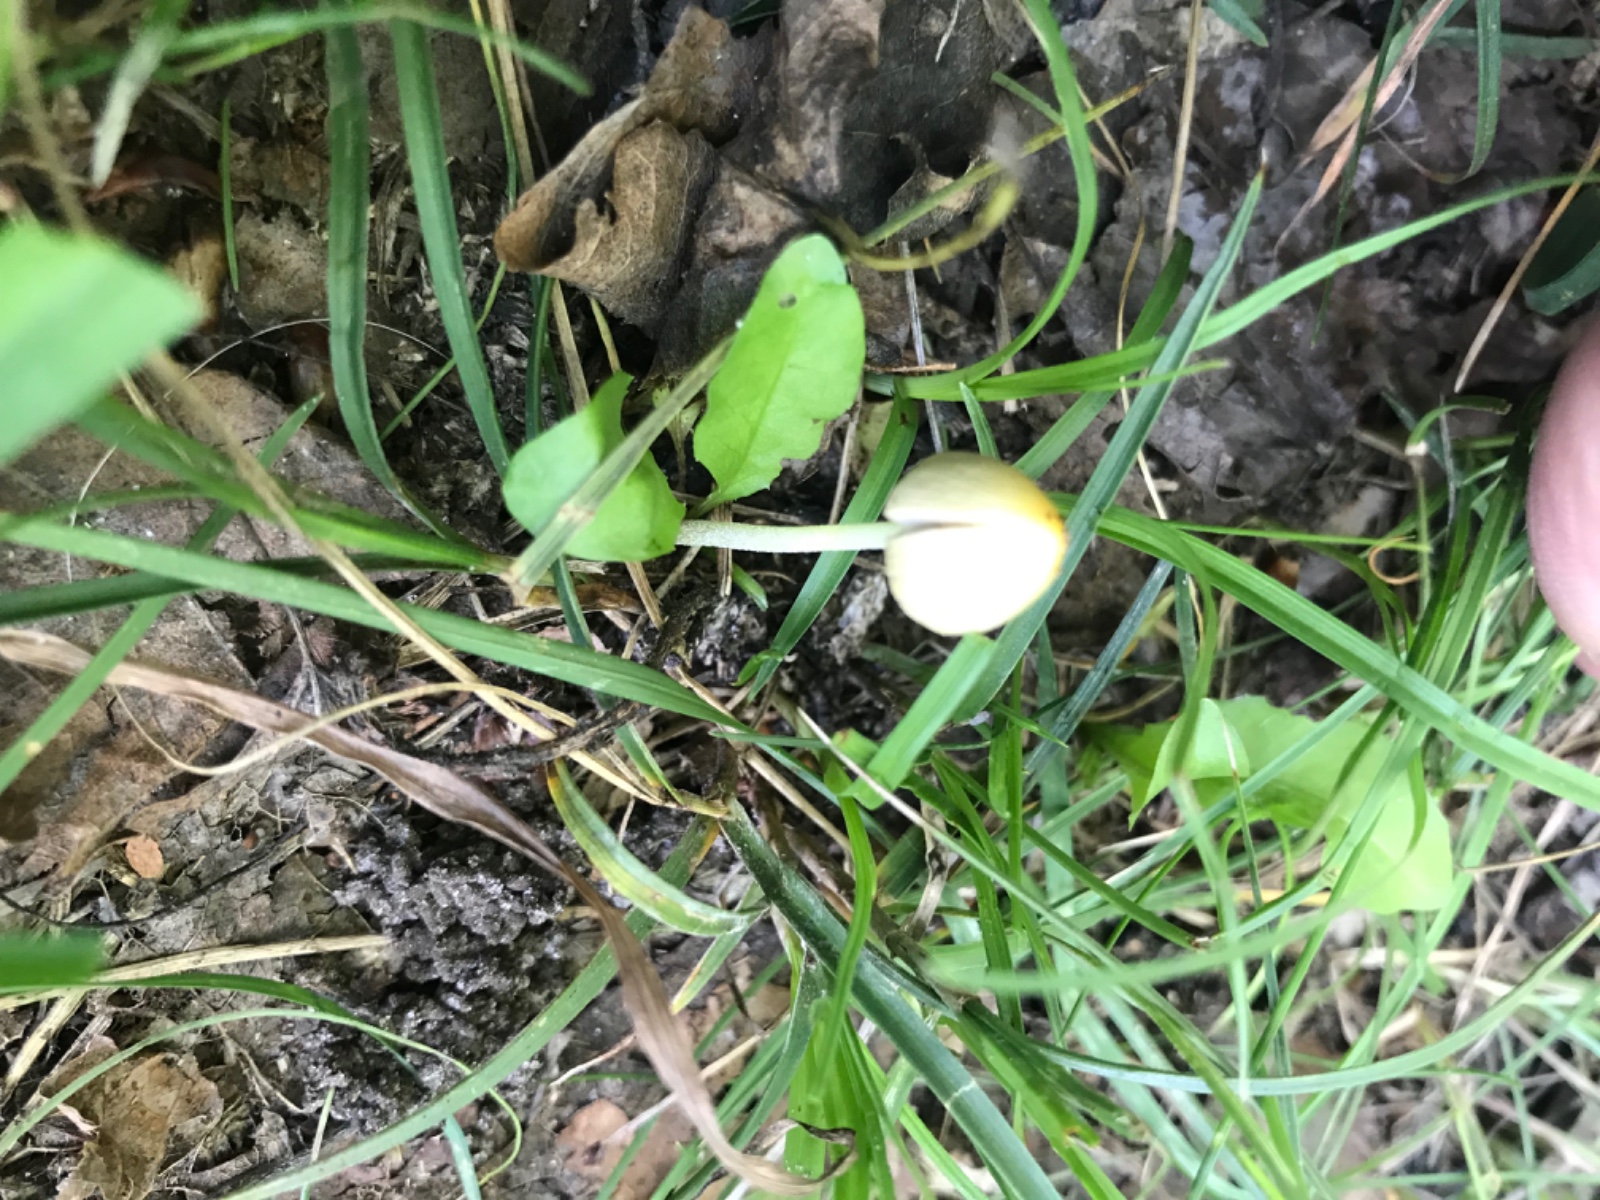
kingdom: Fungi
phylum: Basidiomycota
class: Agaricomycetes
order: Agaricales
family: Bolbitiaceae
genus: Bolbitius
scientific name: Bolbitius titubans
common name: almindelig gulhat
